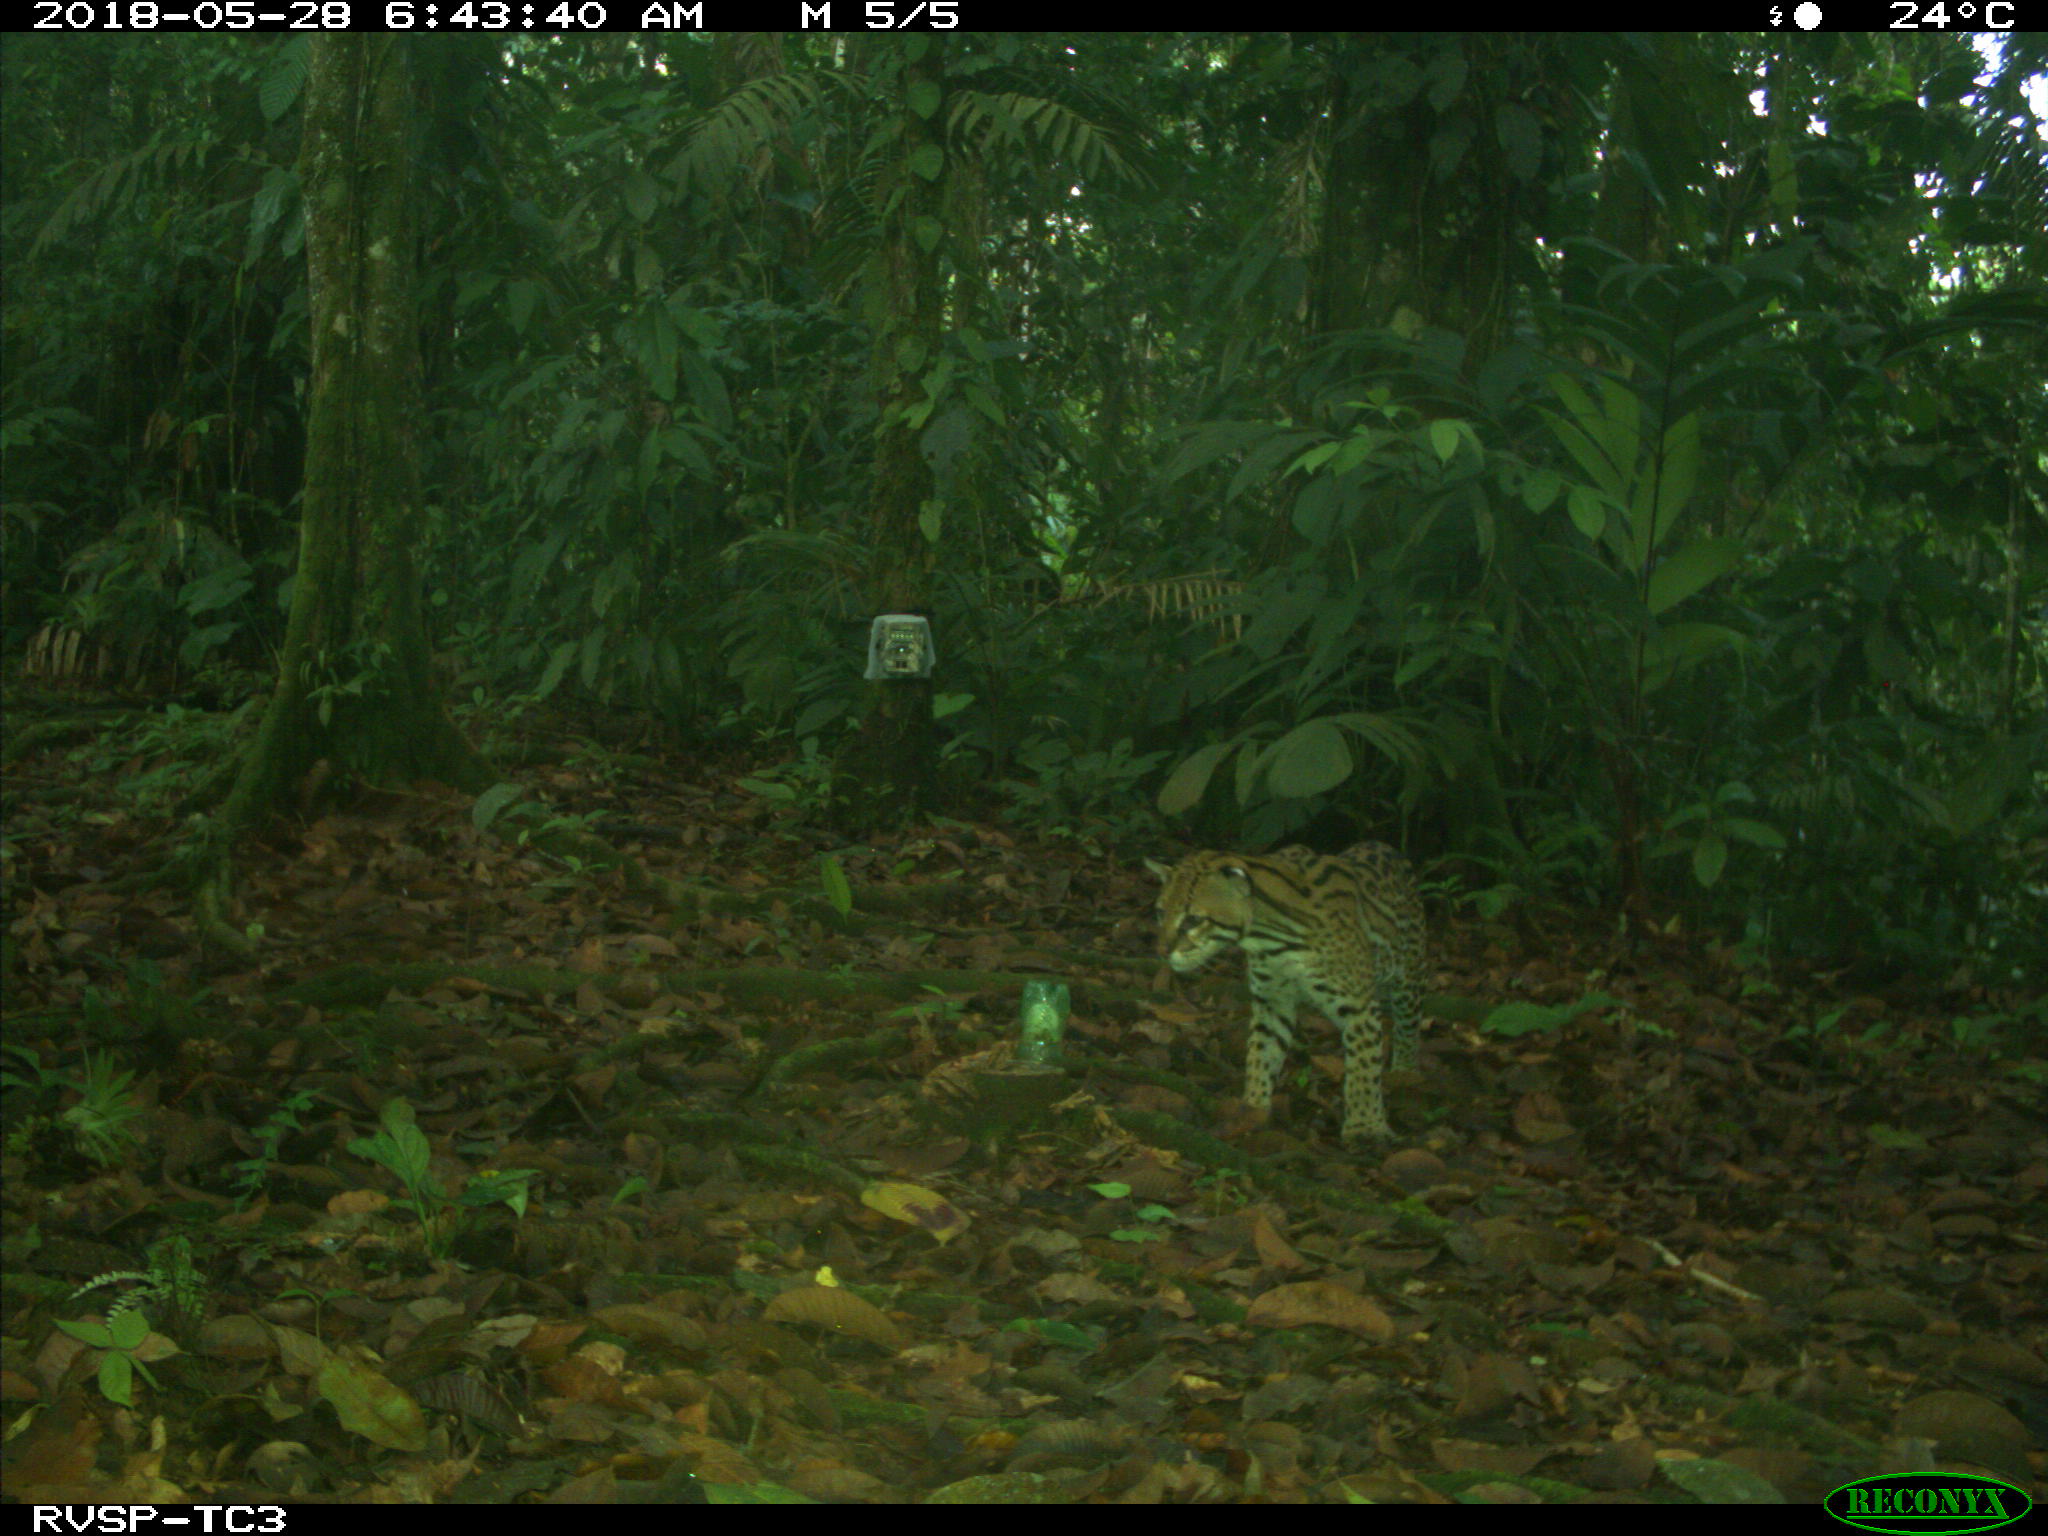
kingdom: Animalia
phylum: Chordata
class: Mammalia
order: Carnivora
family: Felidae
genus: Leopardus
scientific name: Leopardus pardalis
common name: Ocelot
